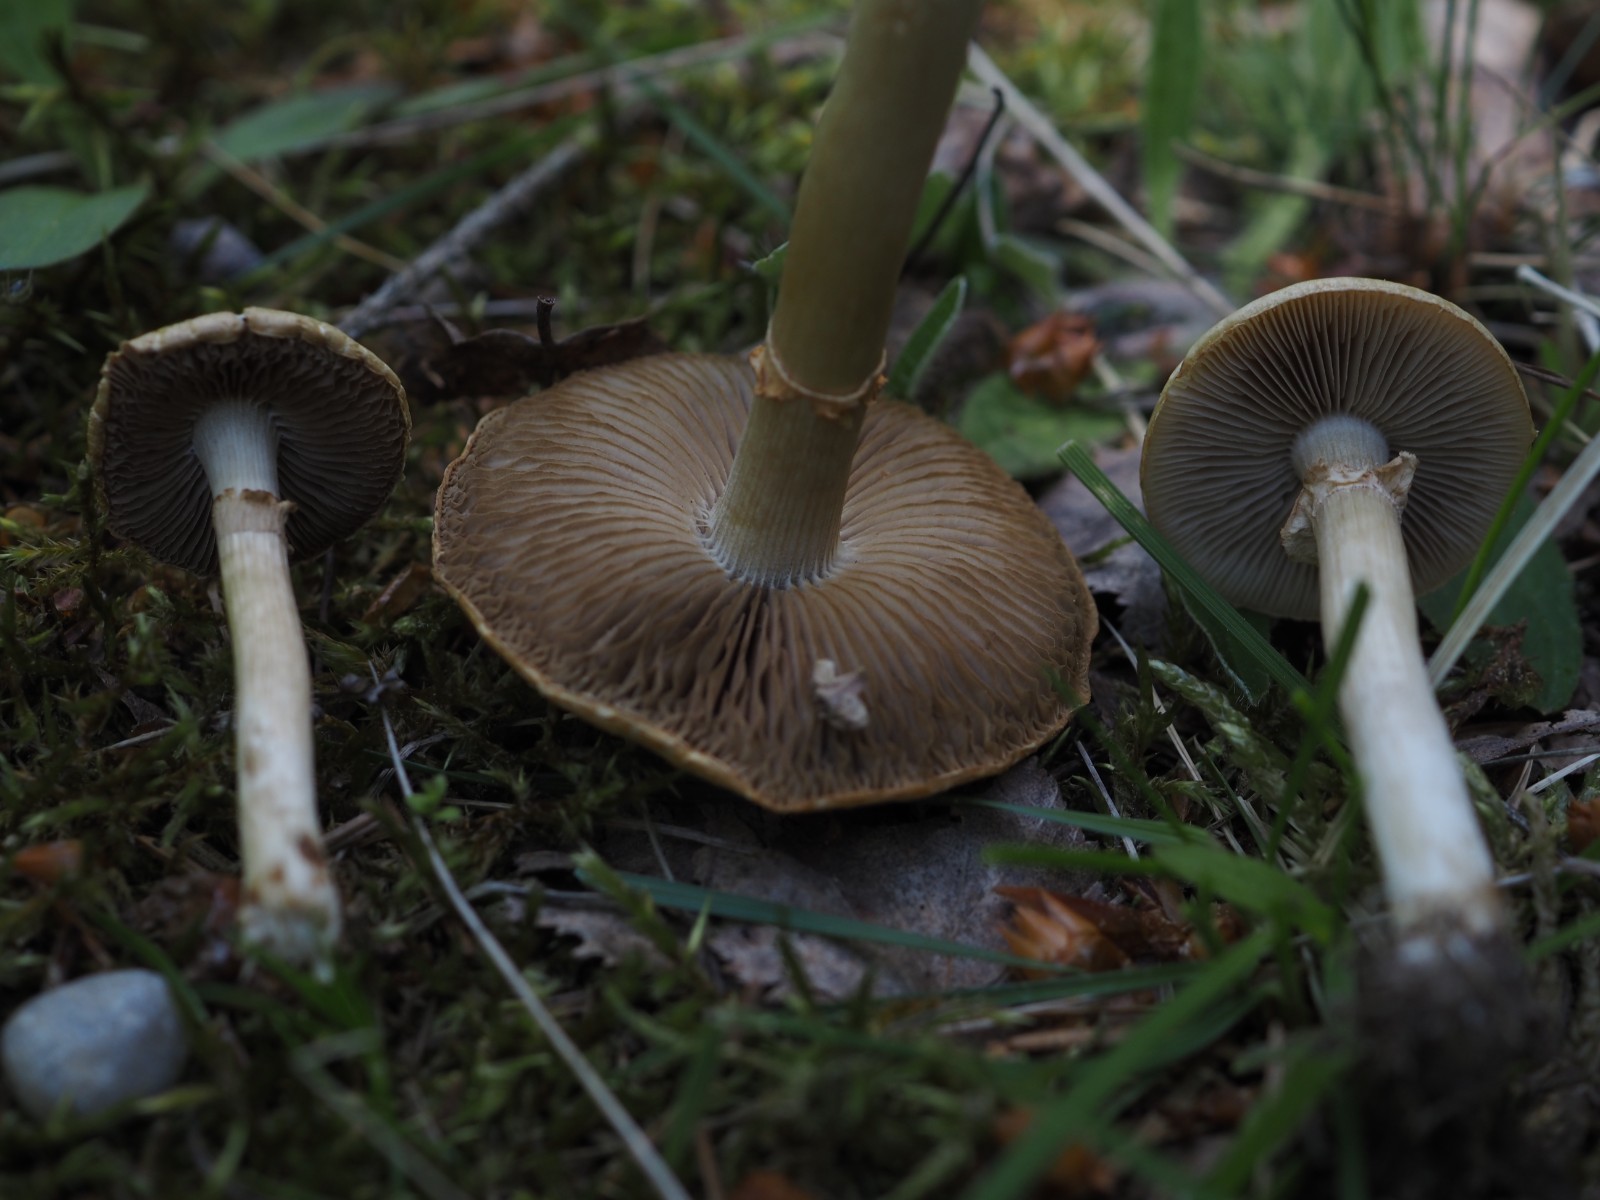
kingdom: Fungi
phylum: Basidiomycota
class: Agaricomycetes
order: Agaricales
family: Strophariaceae
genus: Agrocybe
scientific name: Agrocybe praecox
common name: tidlig agerhat
